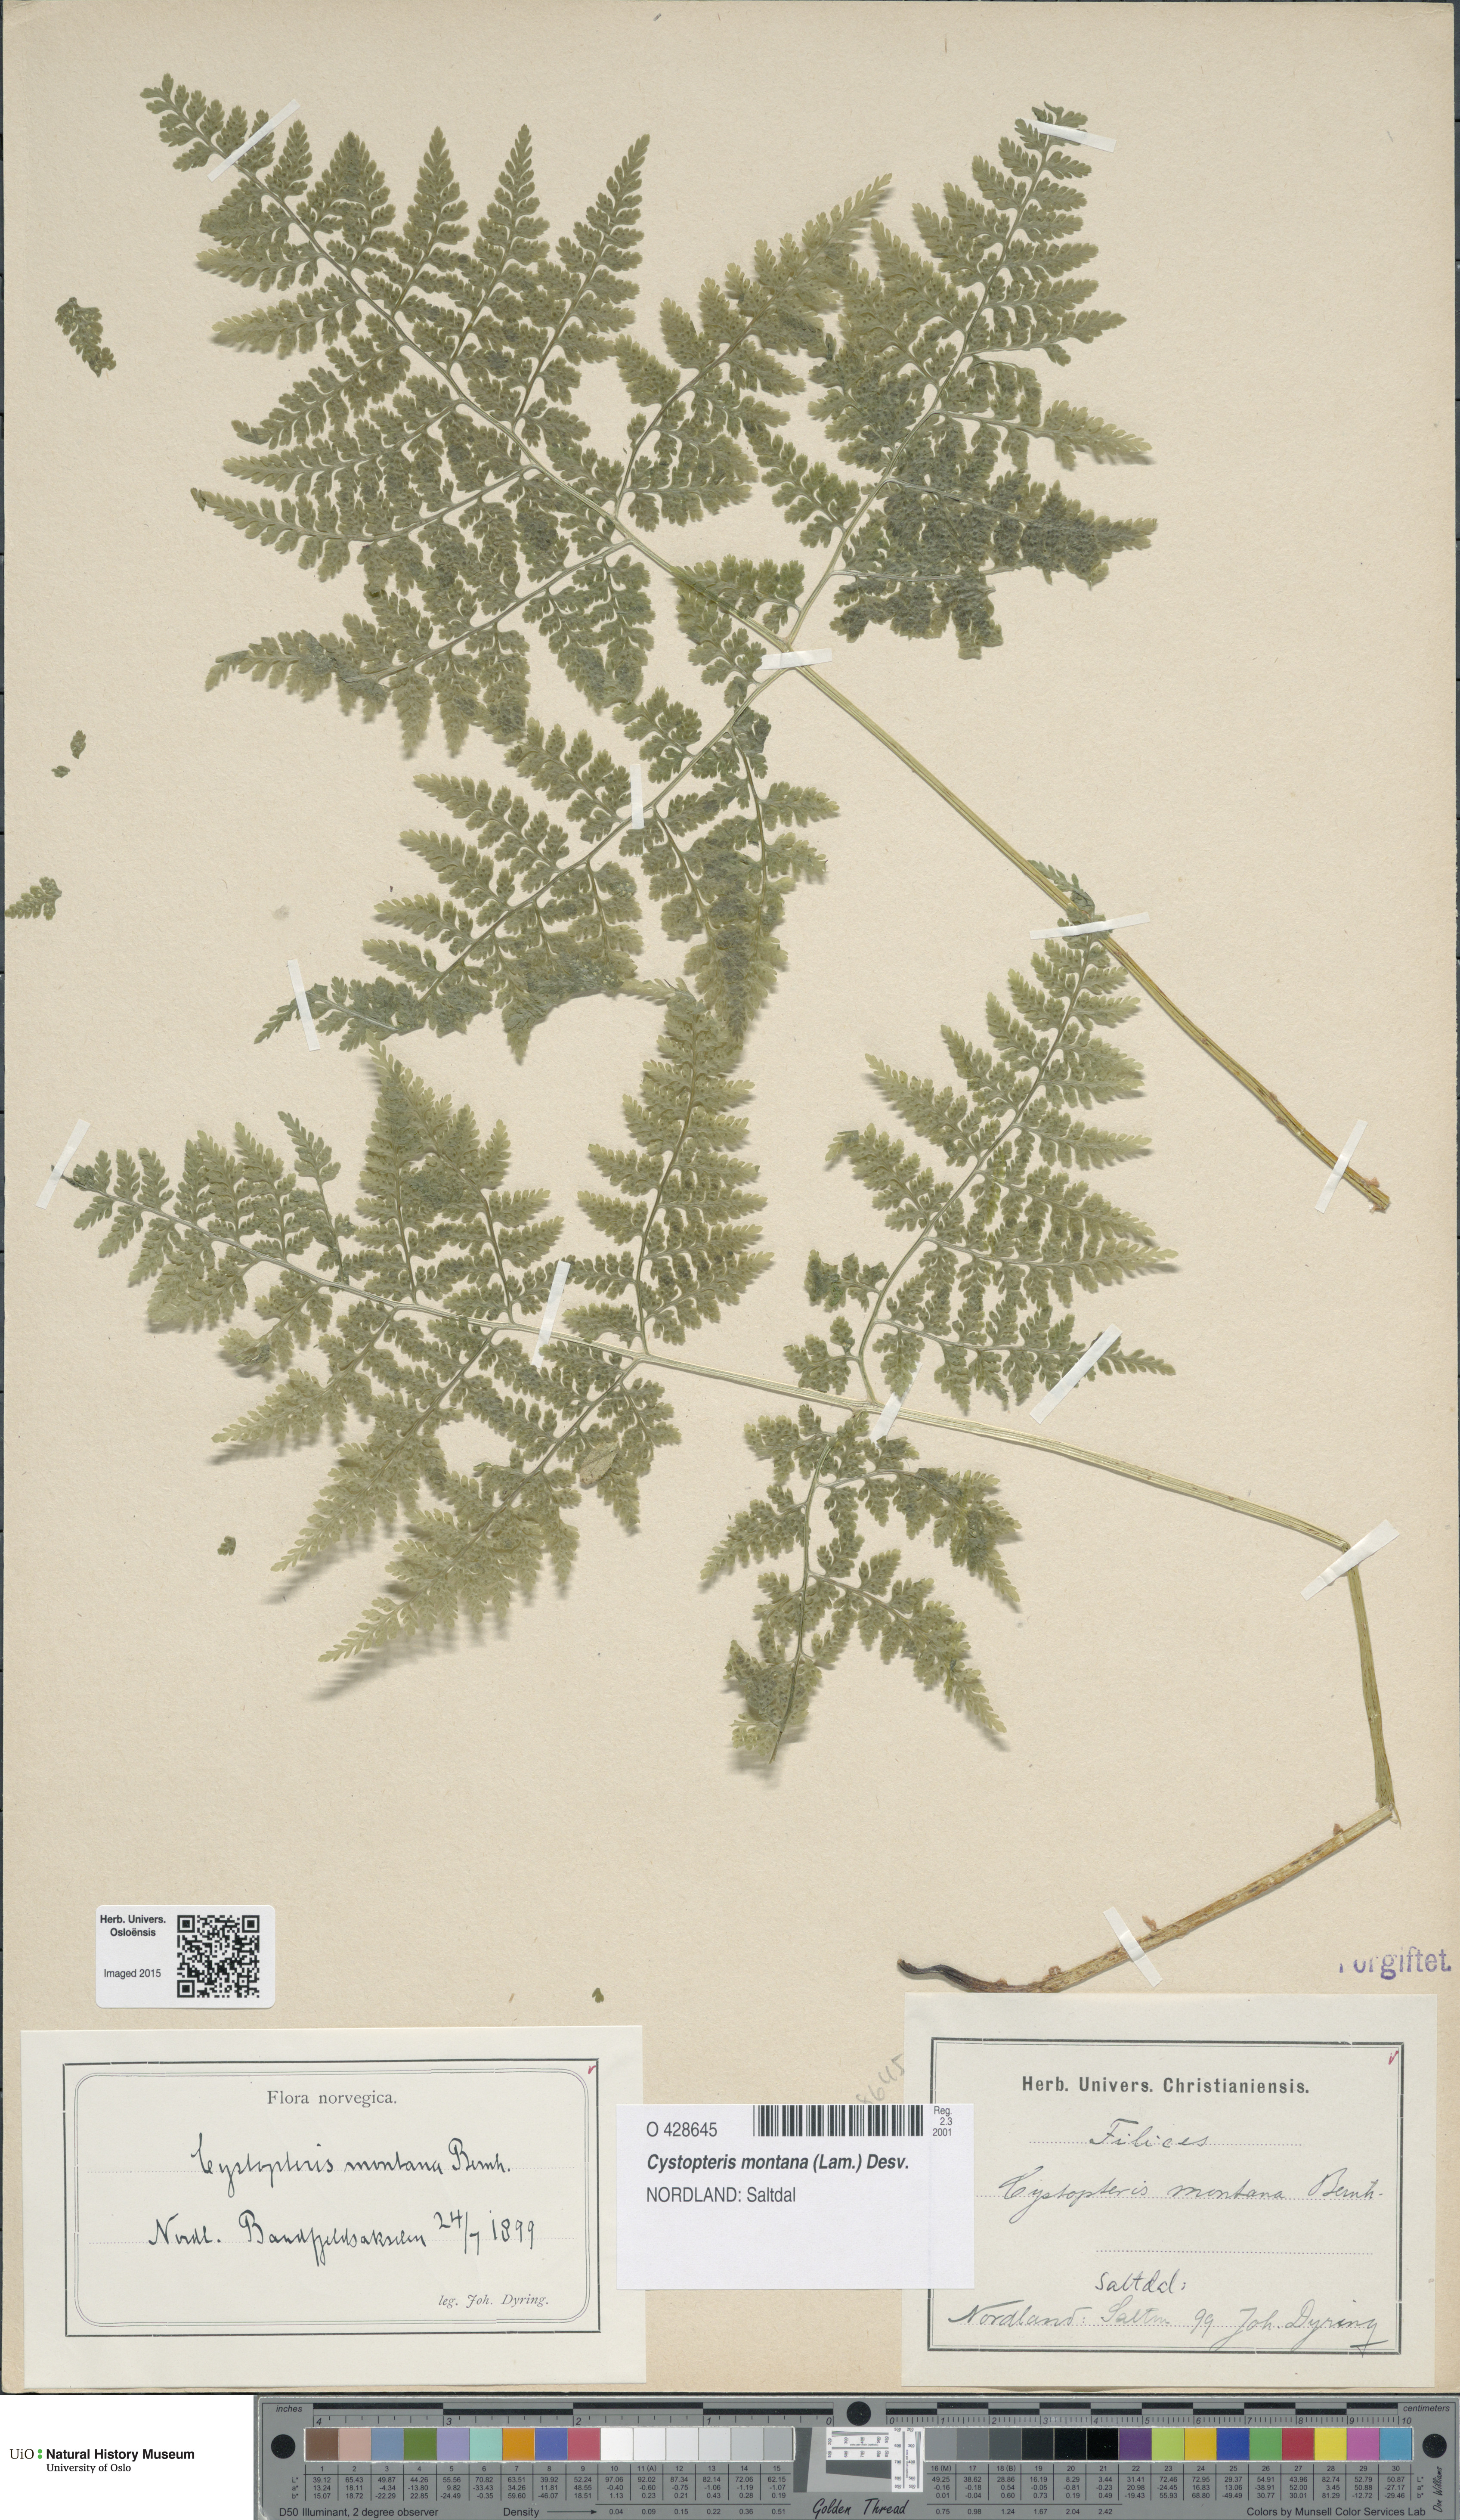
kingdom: Plantae
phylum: Tracheophyta
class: Polypodiopsida
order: Polypodiales
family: Cystopteridaceae
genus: Cystopteris
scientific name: Cystopteris montana
